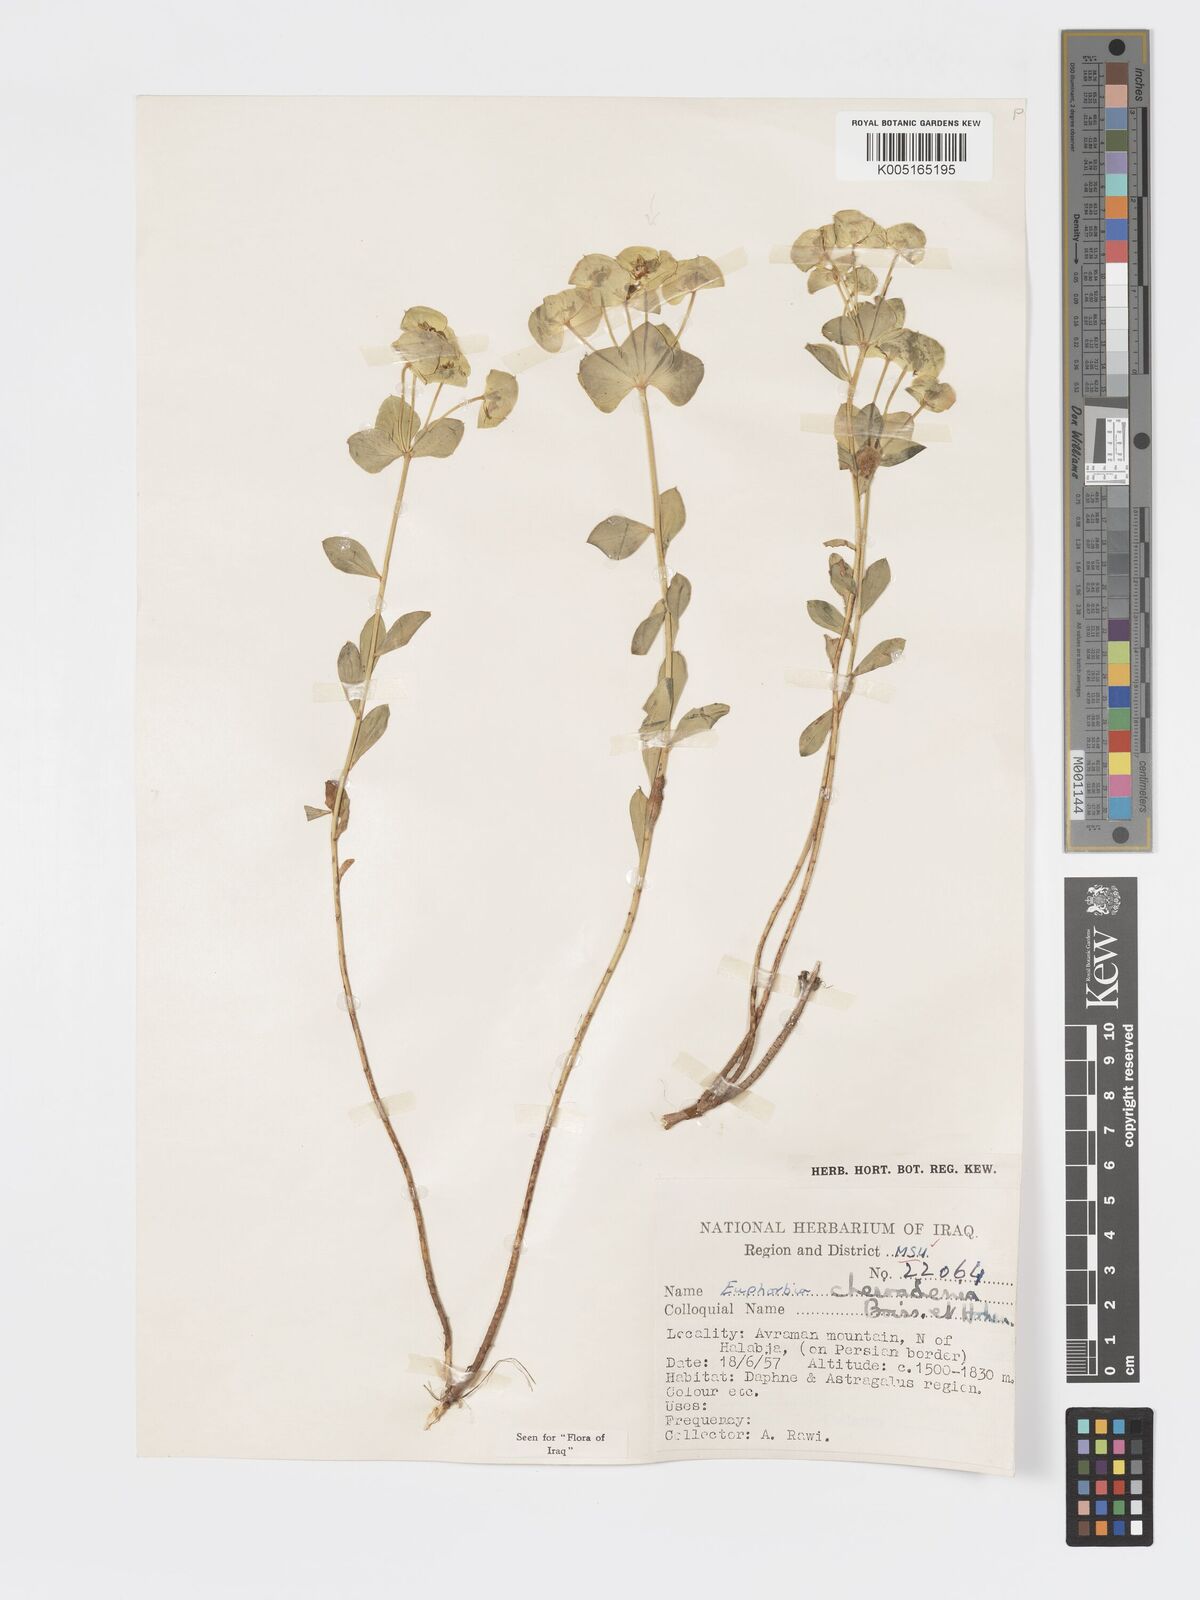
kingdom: Plantae
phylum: Tracheophyta
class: Magnoliopsida
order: Malpighiales
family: Euphorbiaceae
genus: Euphorbia
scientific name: Euphorbia cheiradenia
